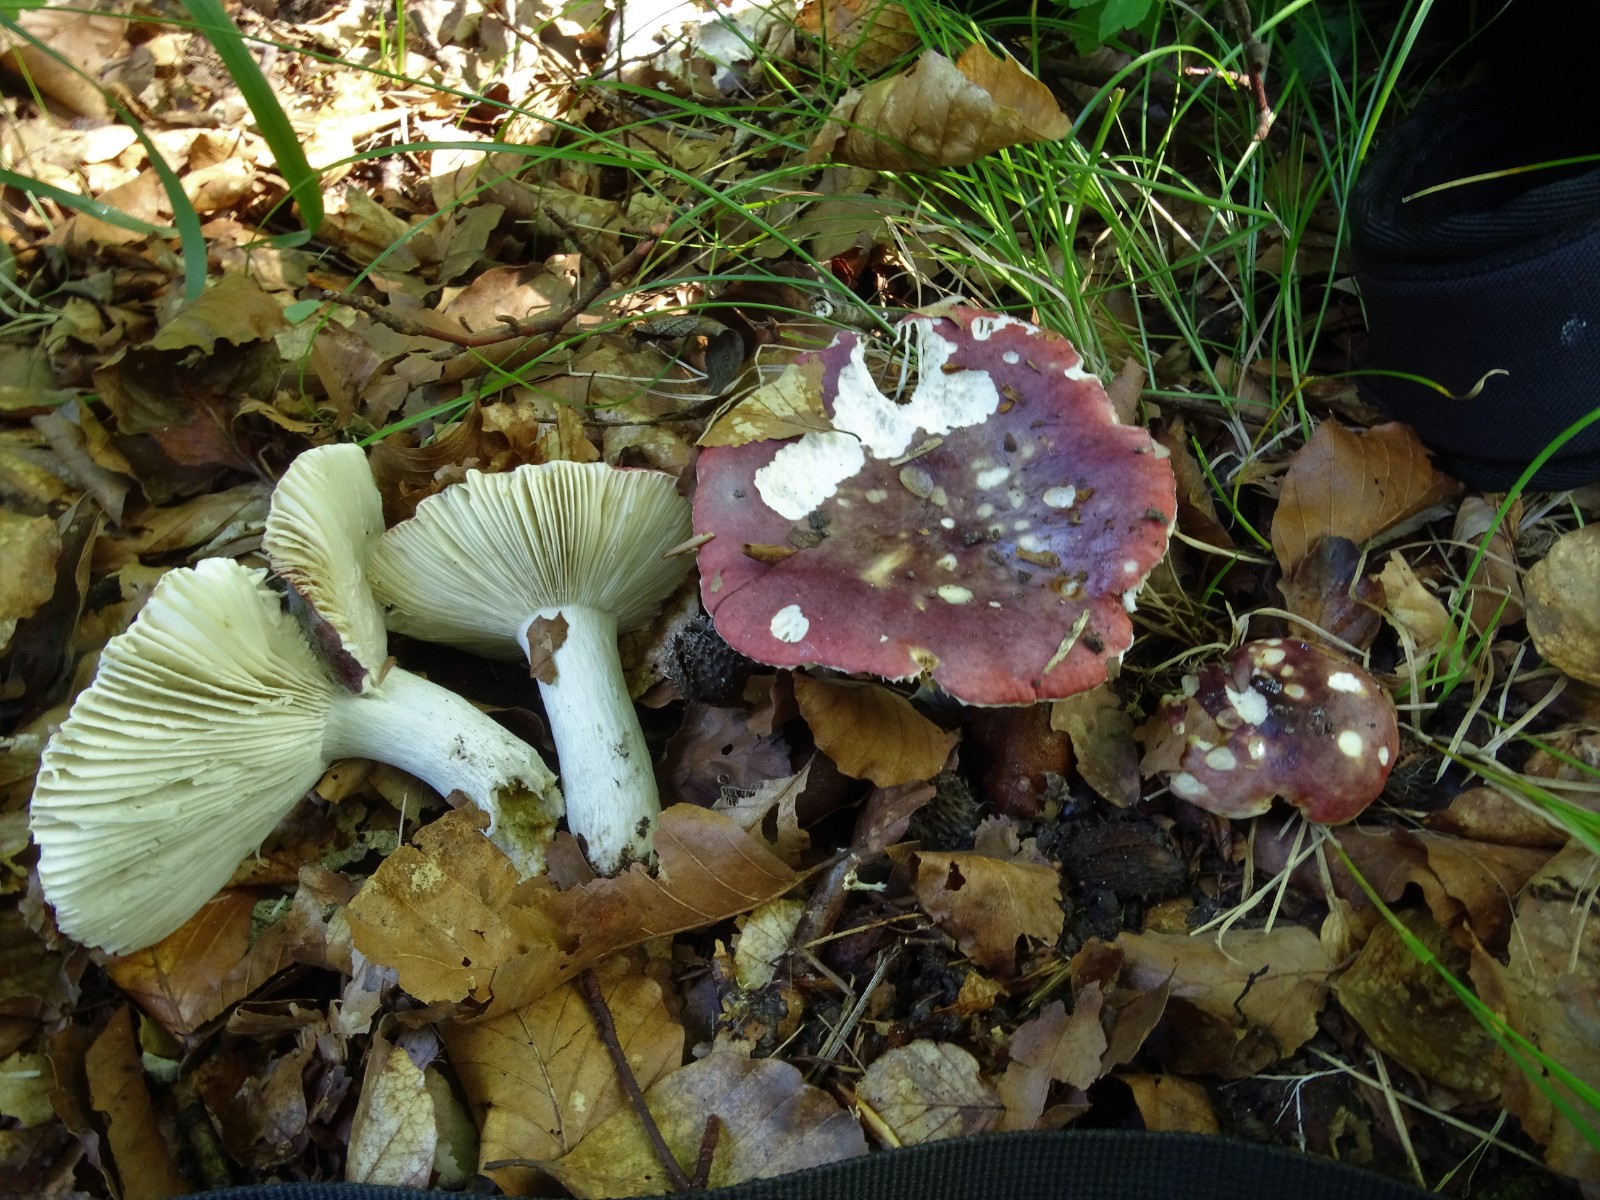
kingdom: Fungi
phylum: Basidiomycota
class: Agaricomycetes
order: Russulales
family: Russulaceae
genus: Russula
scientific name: Russula atropurpurea
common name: purpurbroget skørhat
